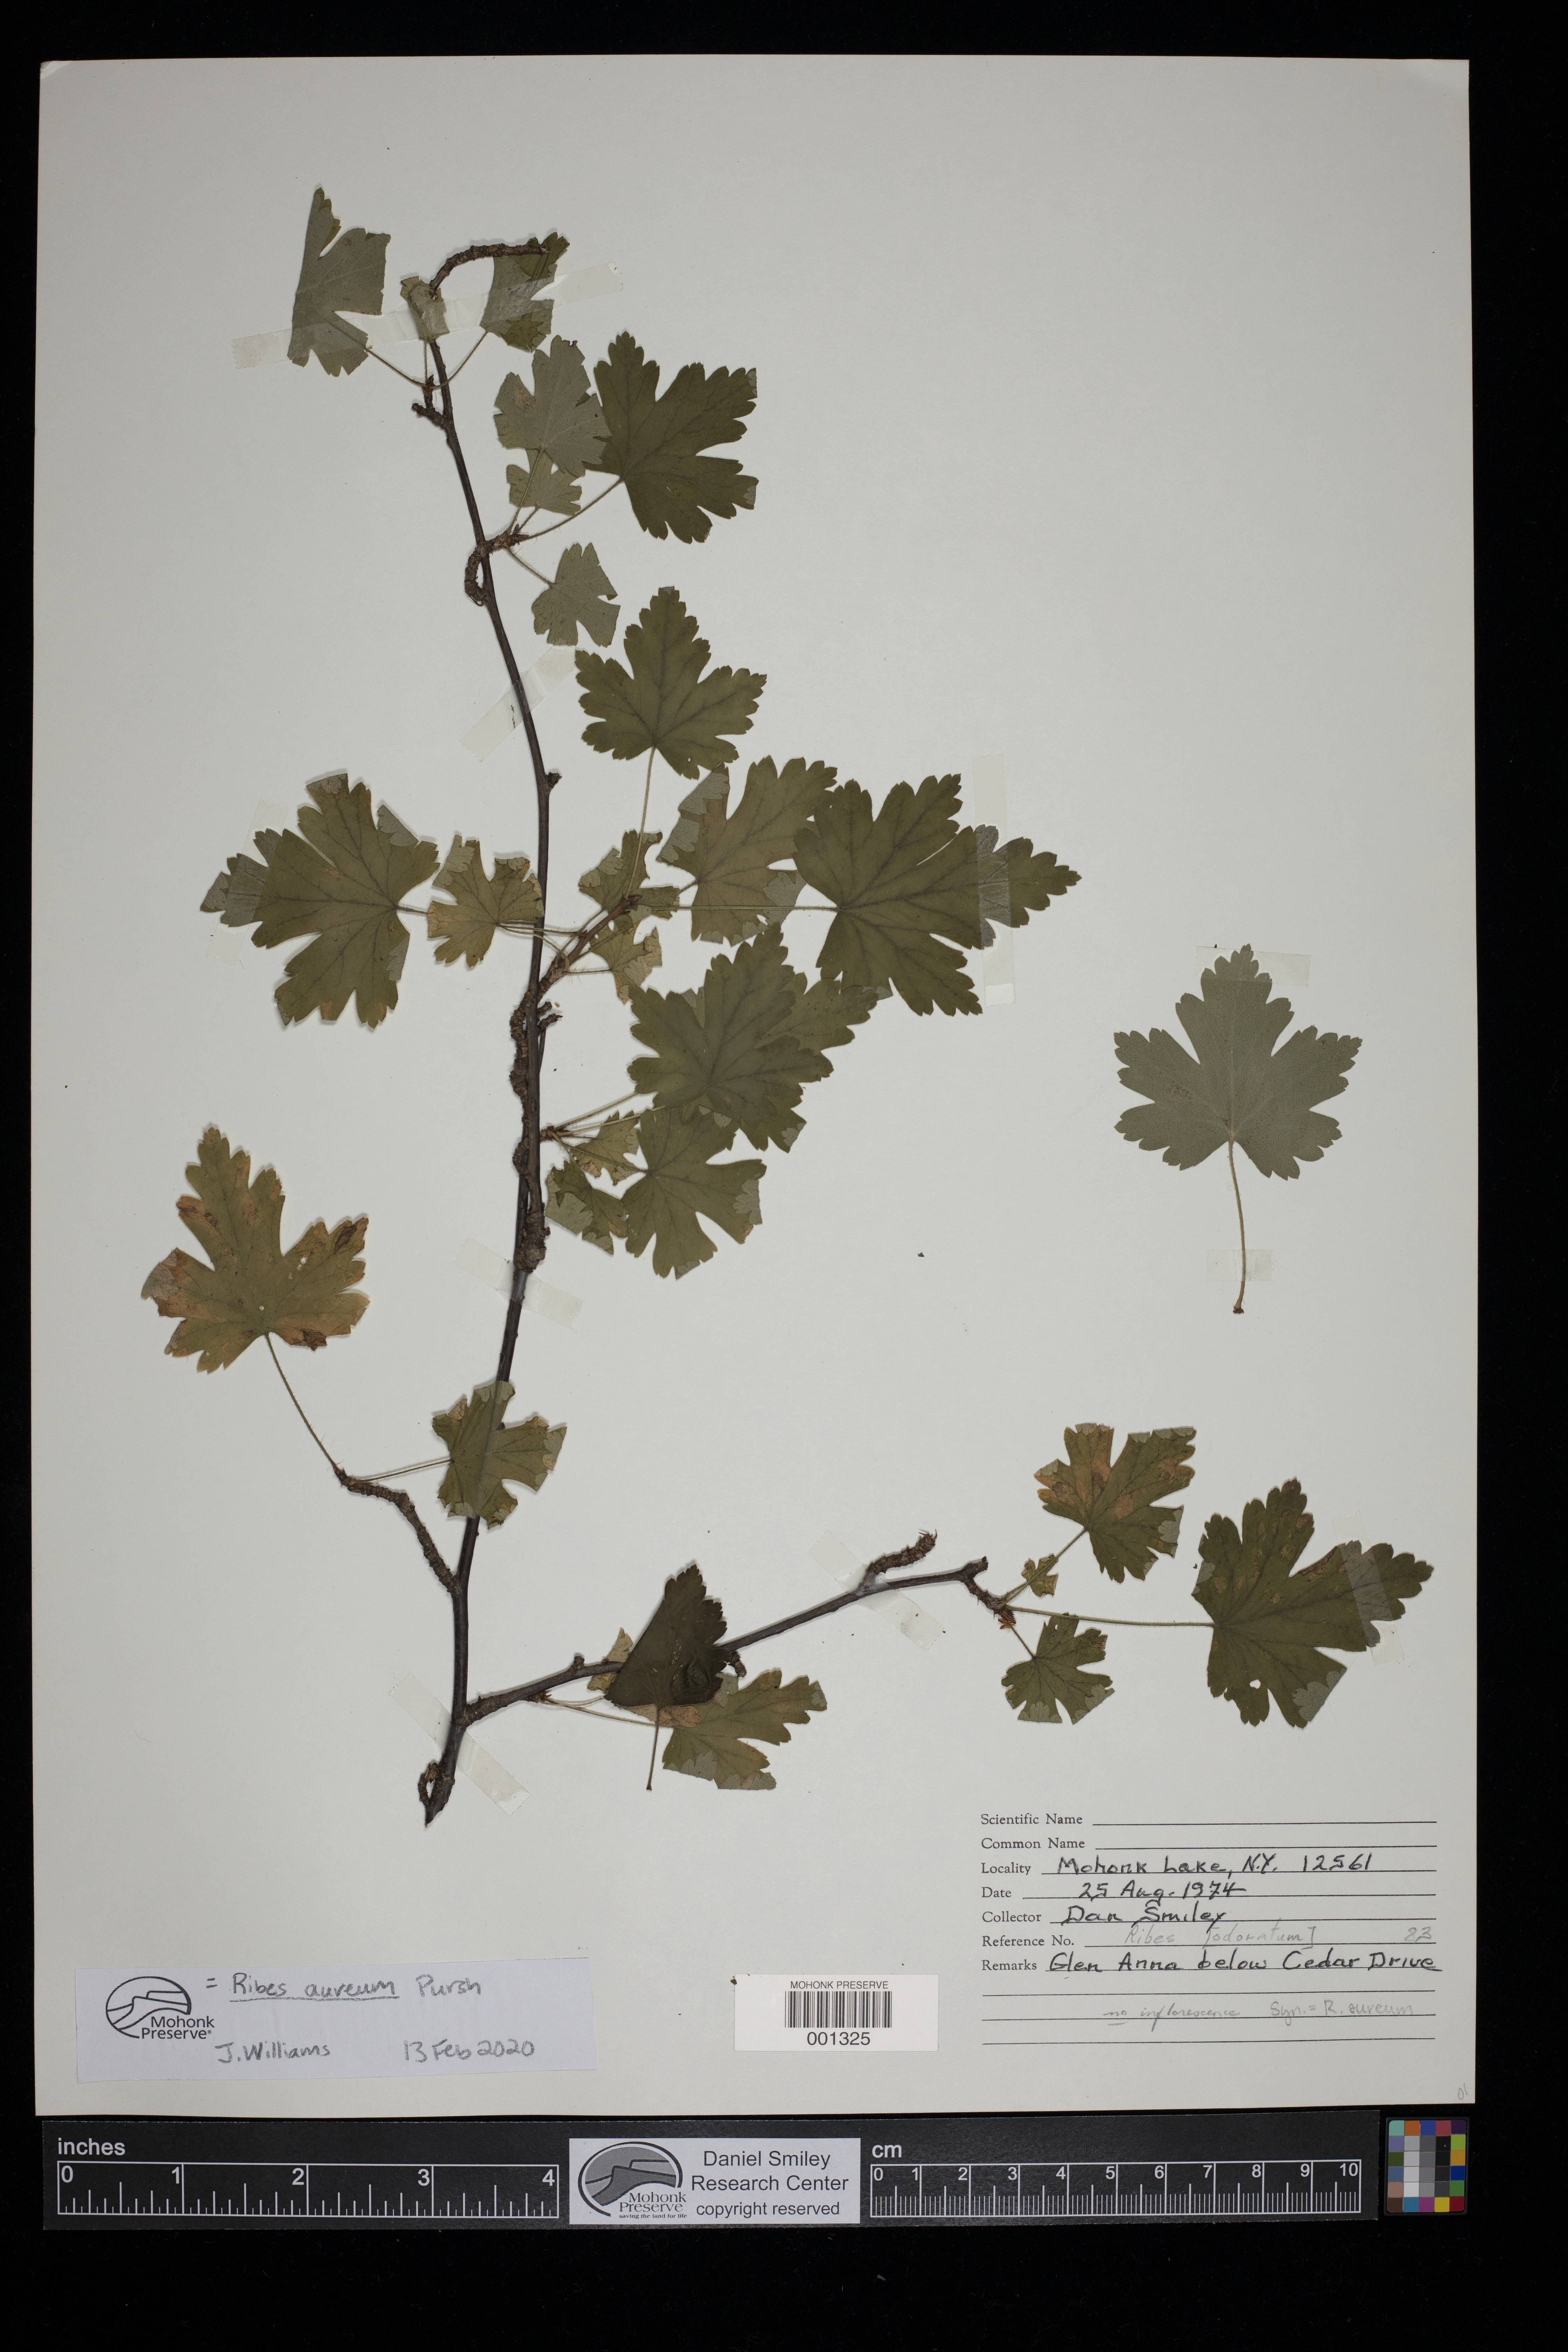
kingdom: Plantae
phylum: Tracheophyta
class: Magnoliopsida
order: Saxifragales
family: Grossulariaceae
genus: Ribes
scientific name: Ribes aureum
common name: Golden currant
